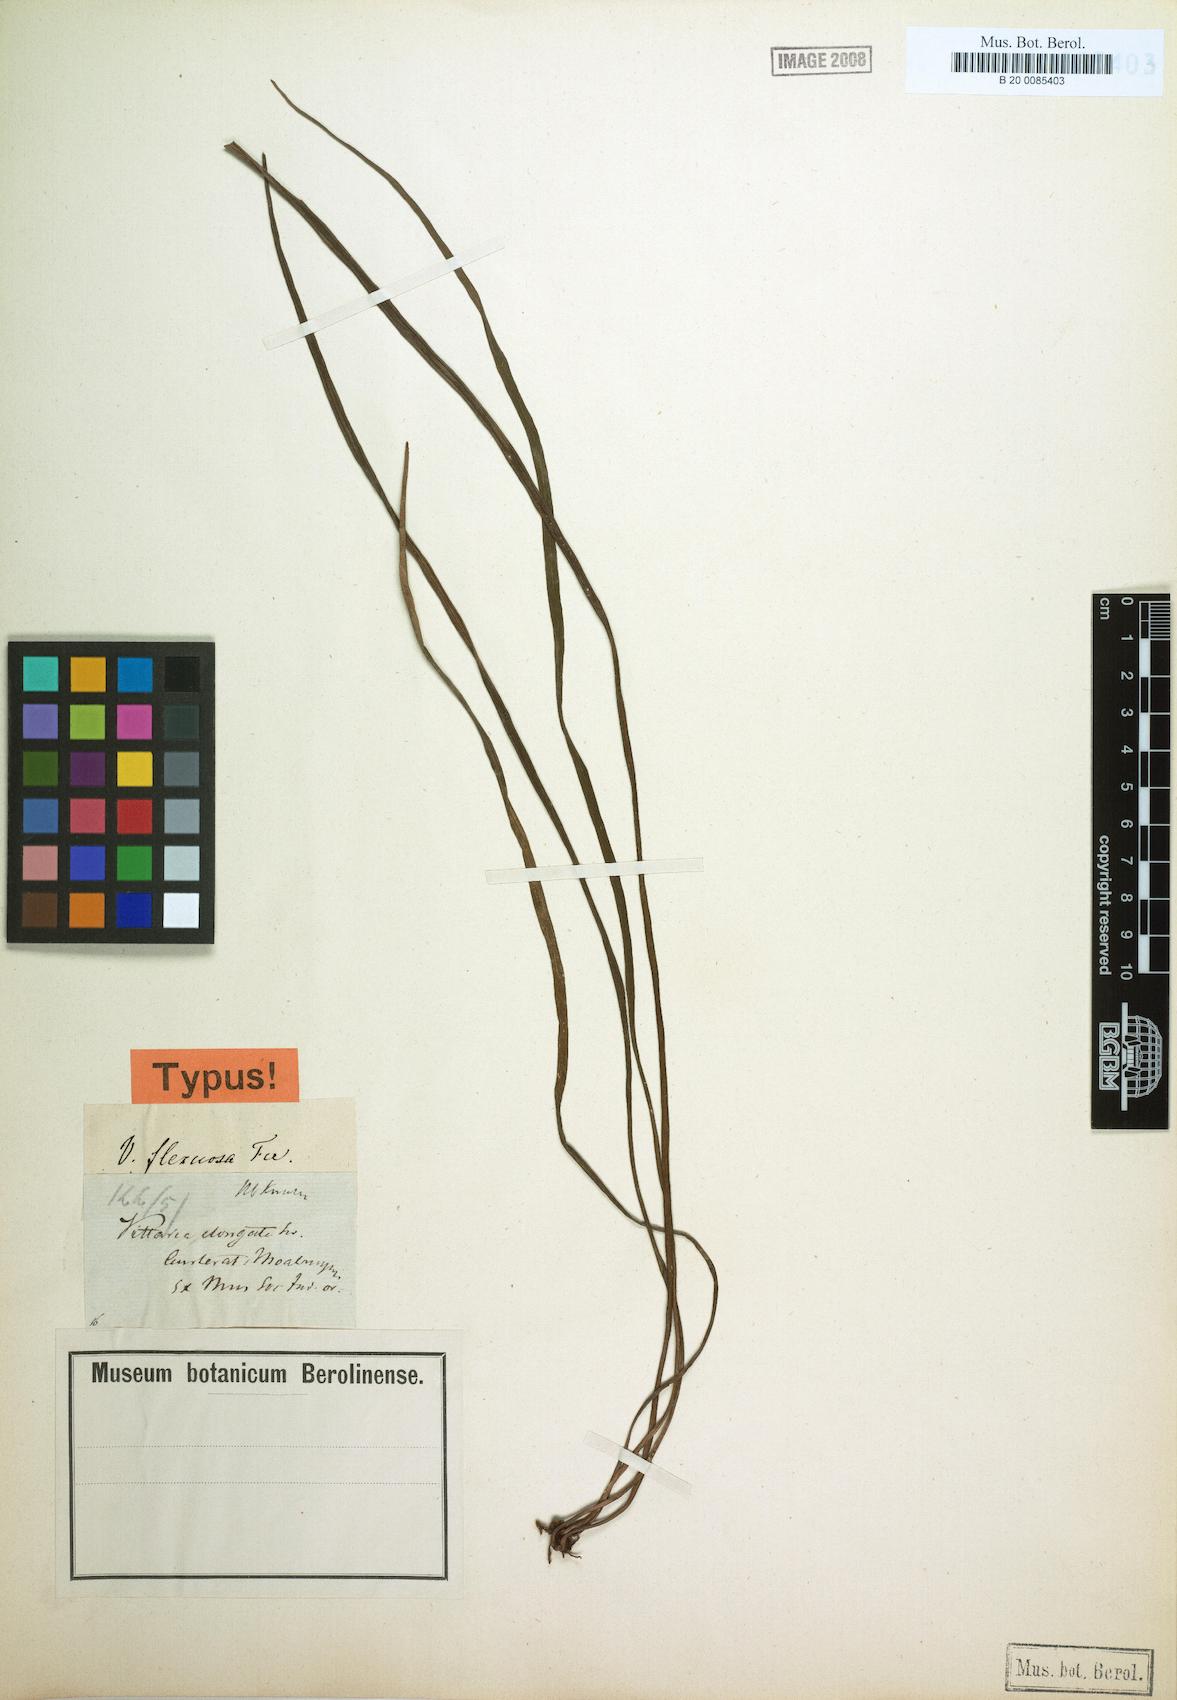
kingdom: Plantae
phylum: Tracheophyta
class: Polypodiopsida
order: Polypodiales
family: Pteridaceae
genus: Haplopteris
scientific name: Haplopteris flexuosa
